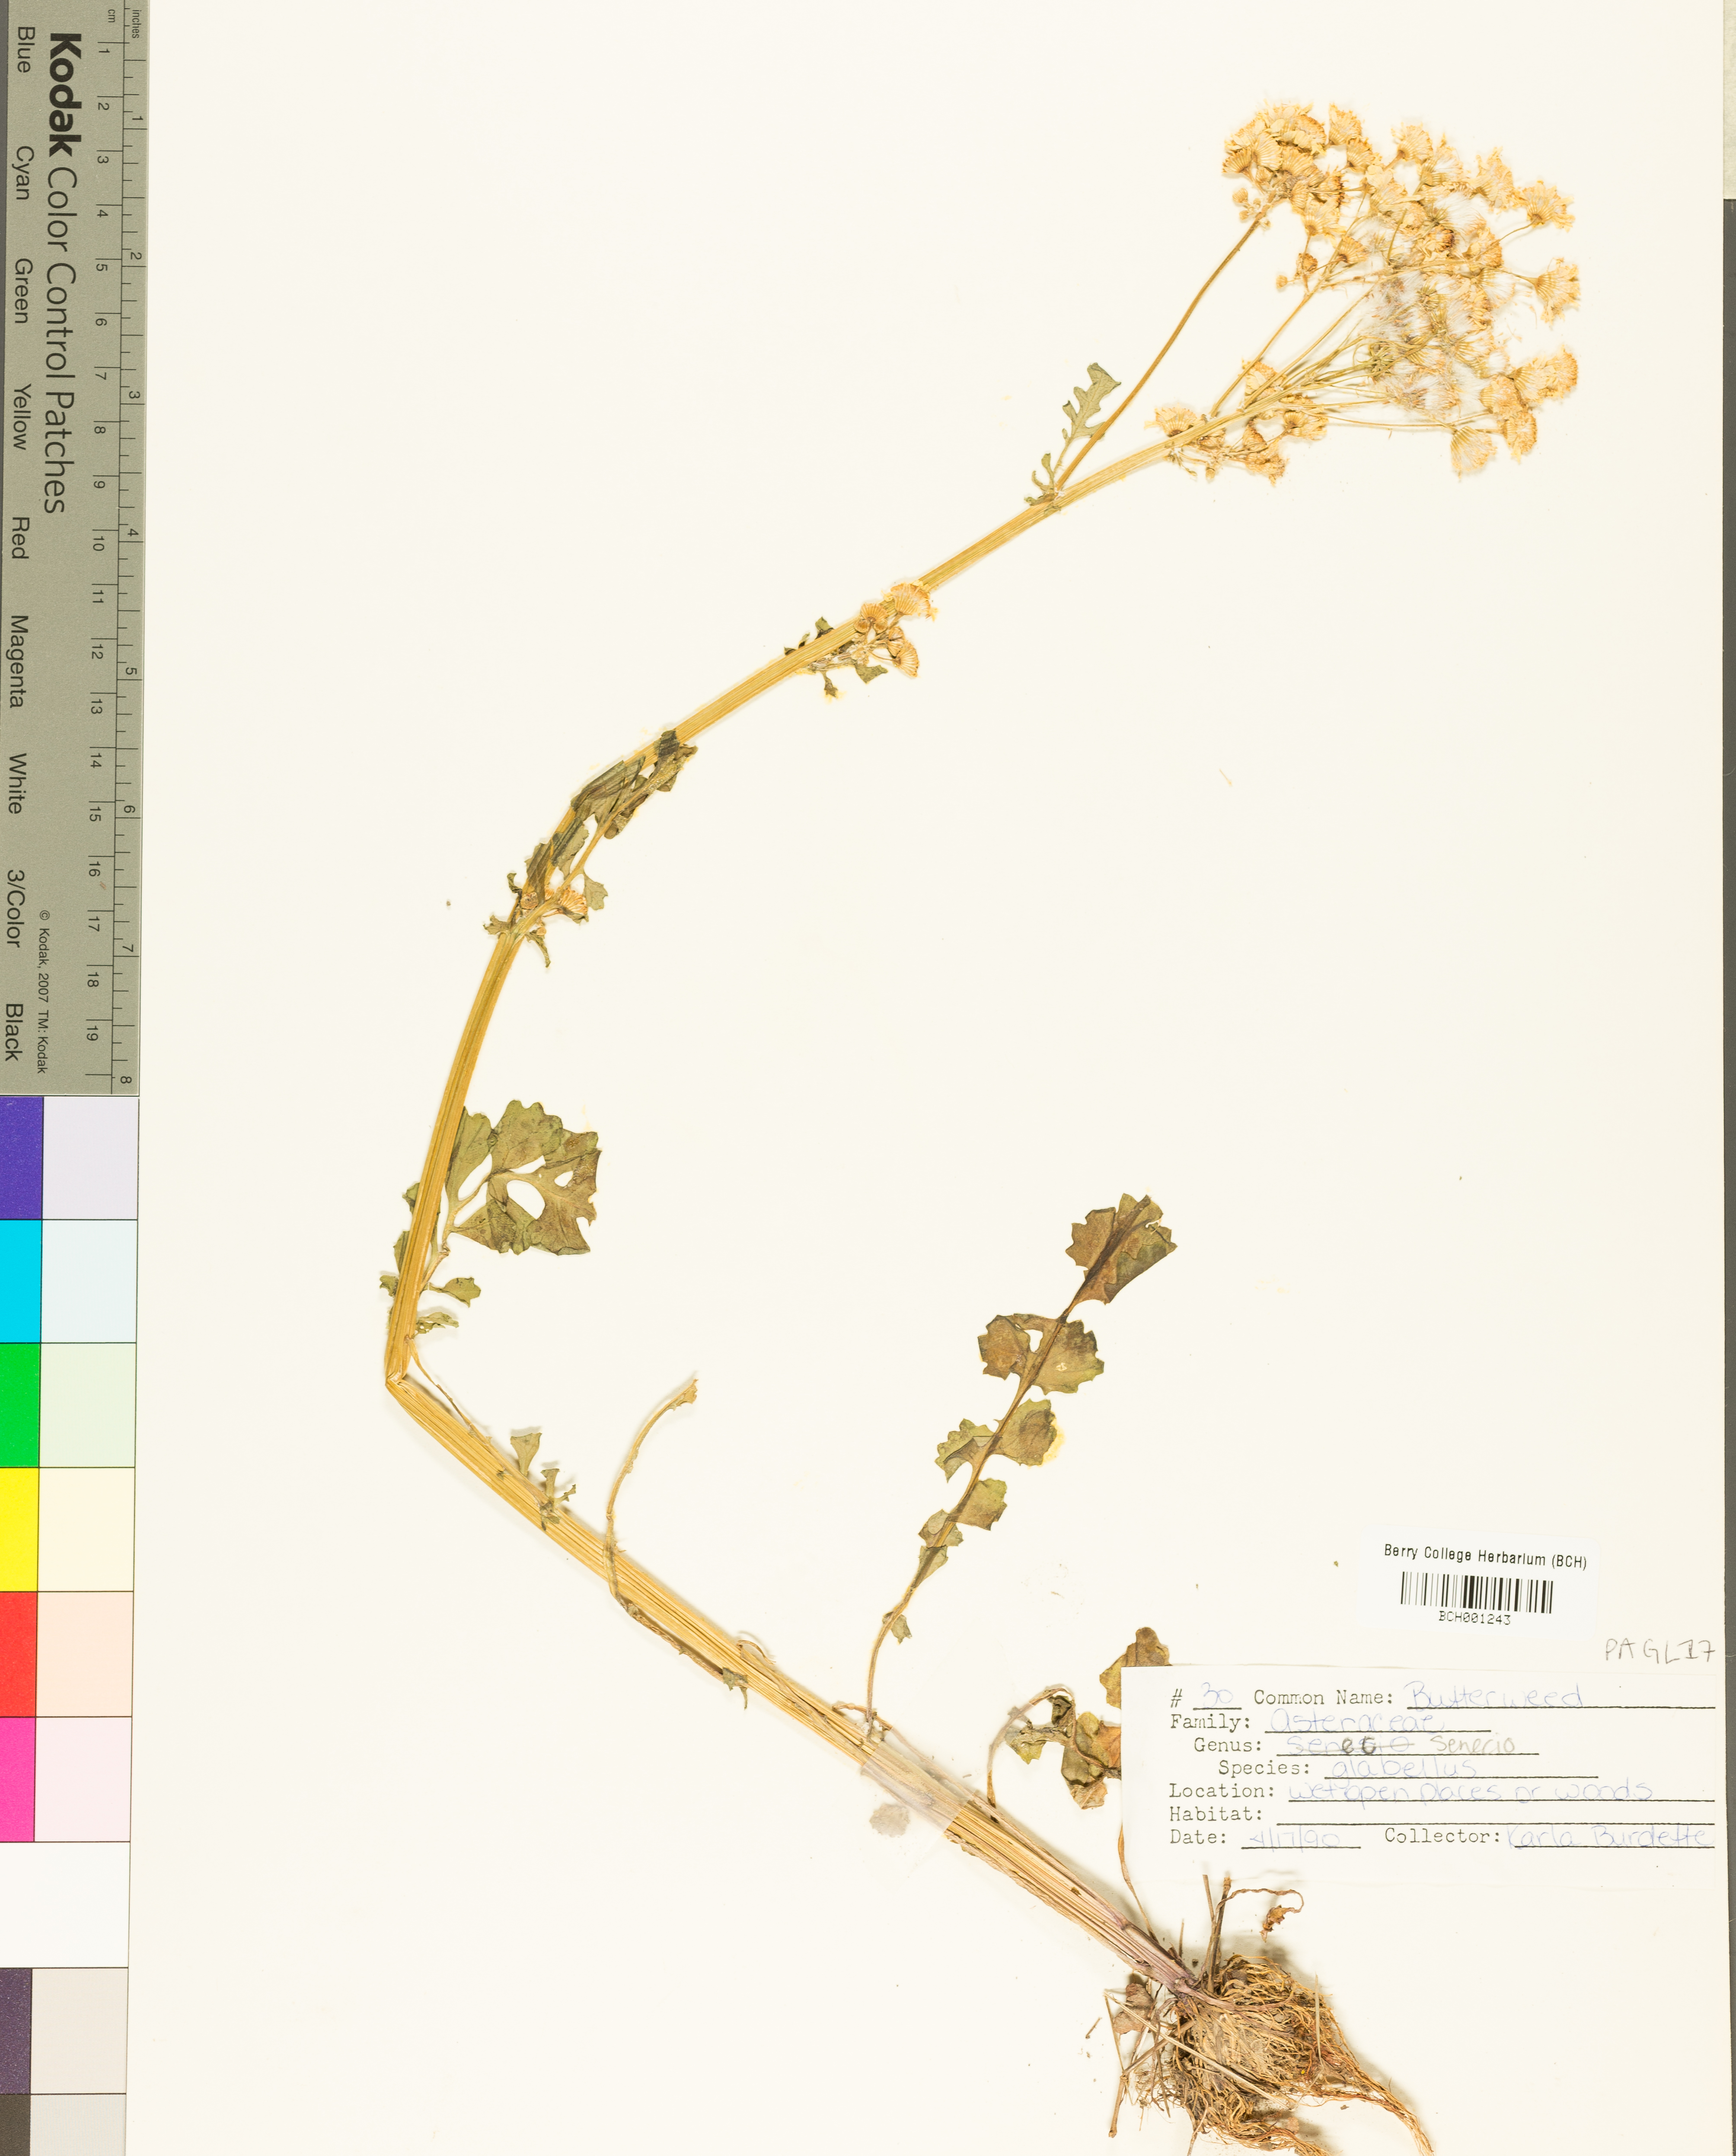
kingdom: Plantae
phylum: Tracheophyta
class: Magnoliopsida
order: Asterales
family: Asteraceae
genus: Packera
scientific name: Packera glabella
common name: Butterweed
